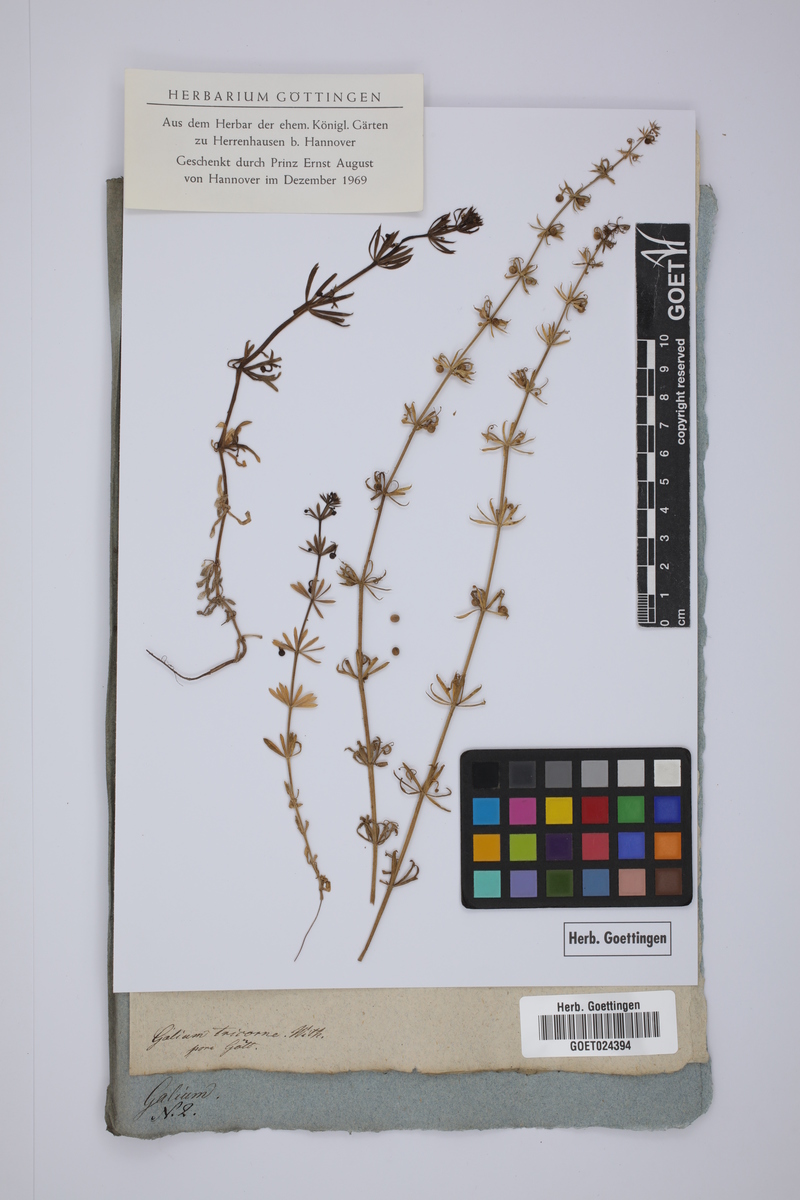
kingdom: Plantae
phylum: Tracheophyta
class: Magnoliopsida
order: Gentianales
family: Rubiaceae
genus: Galium
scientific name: Galium verrucosum
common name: Warty bedstraw
